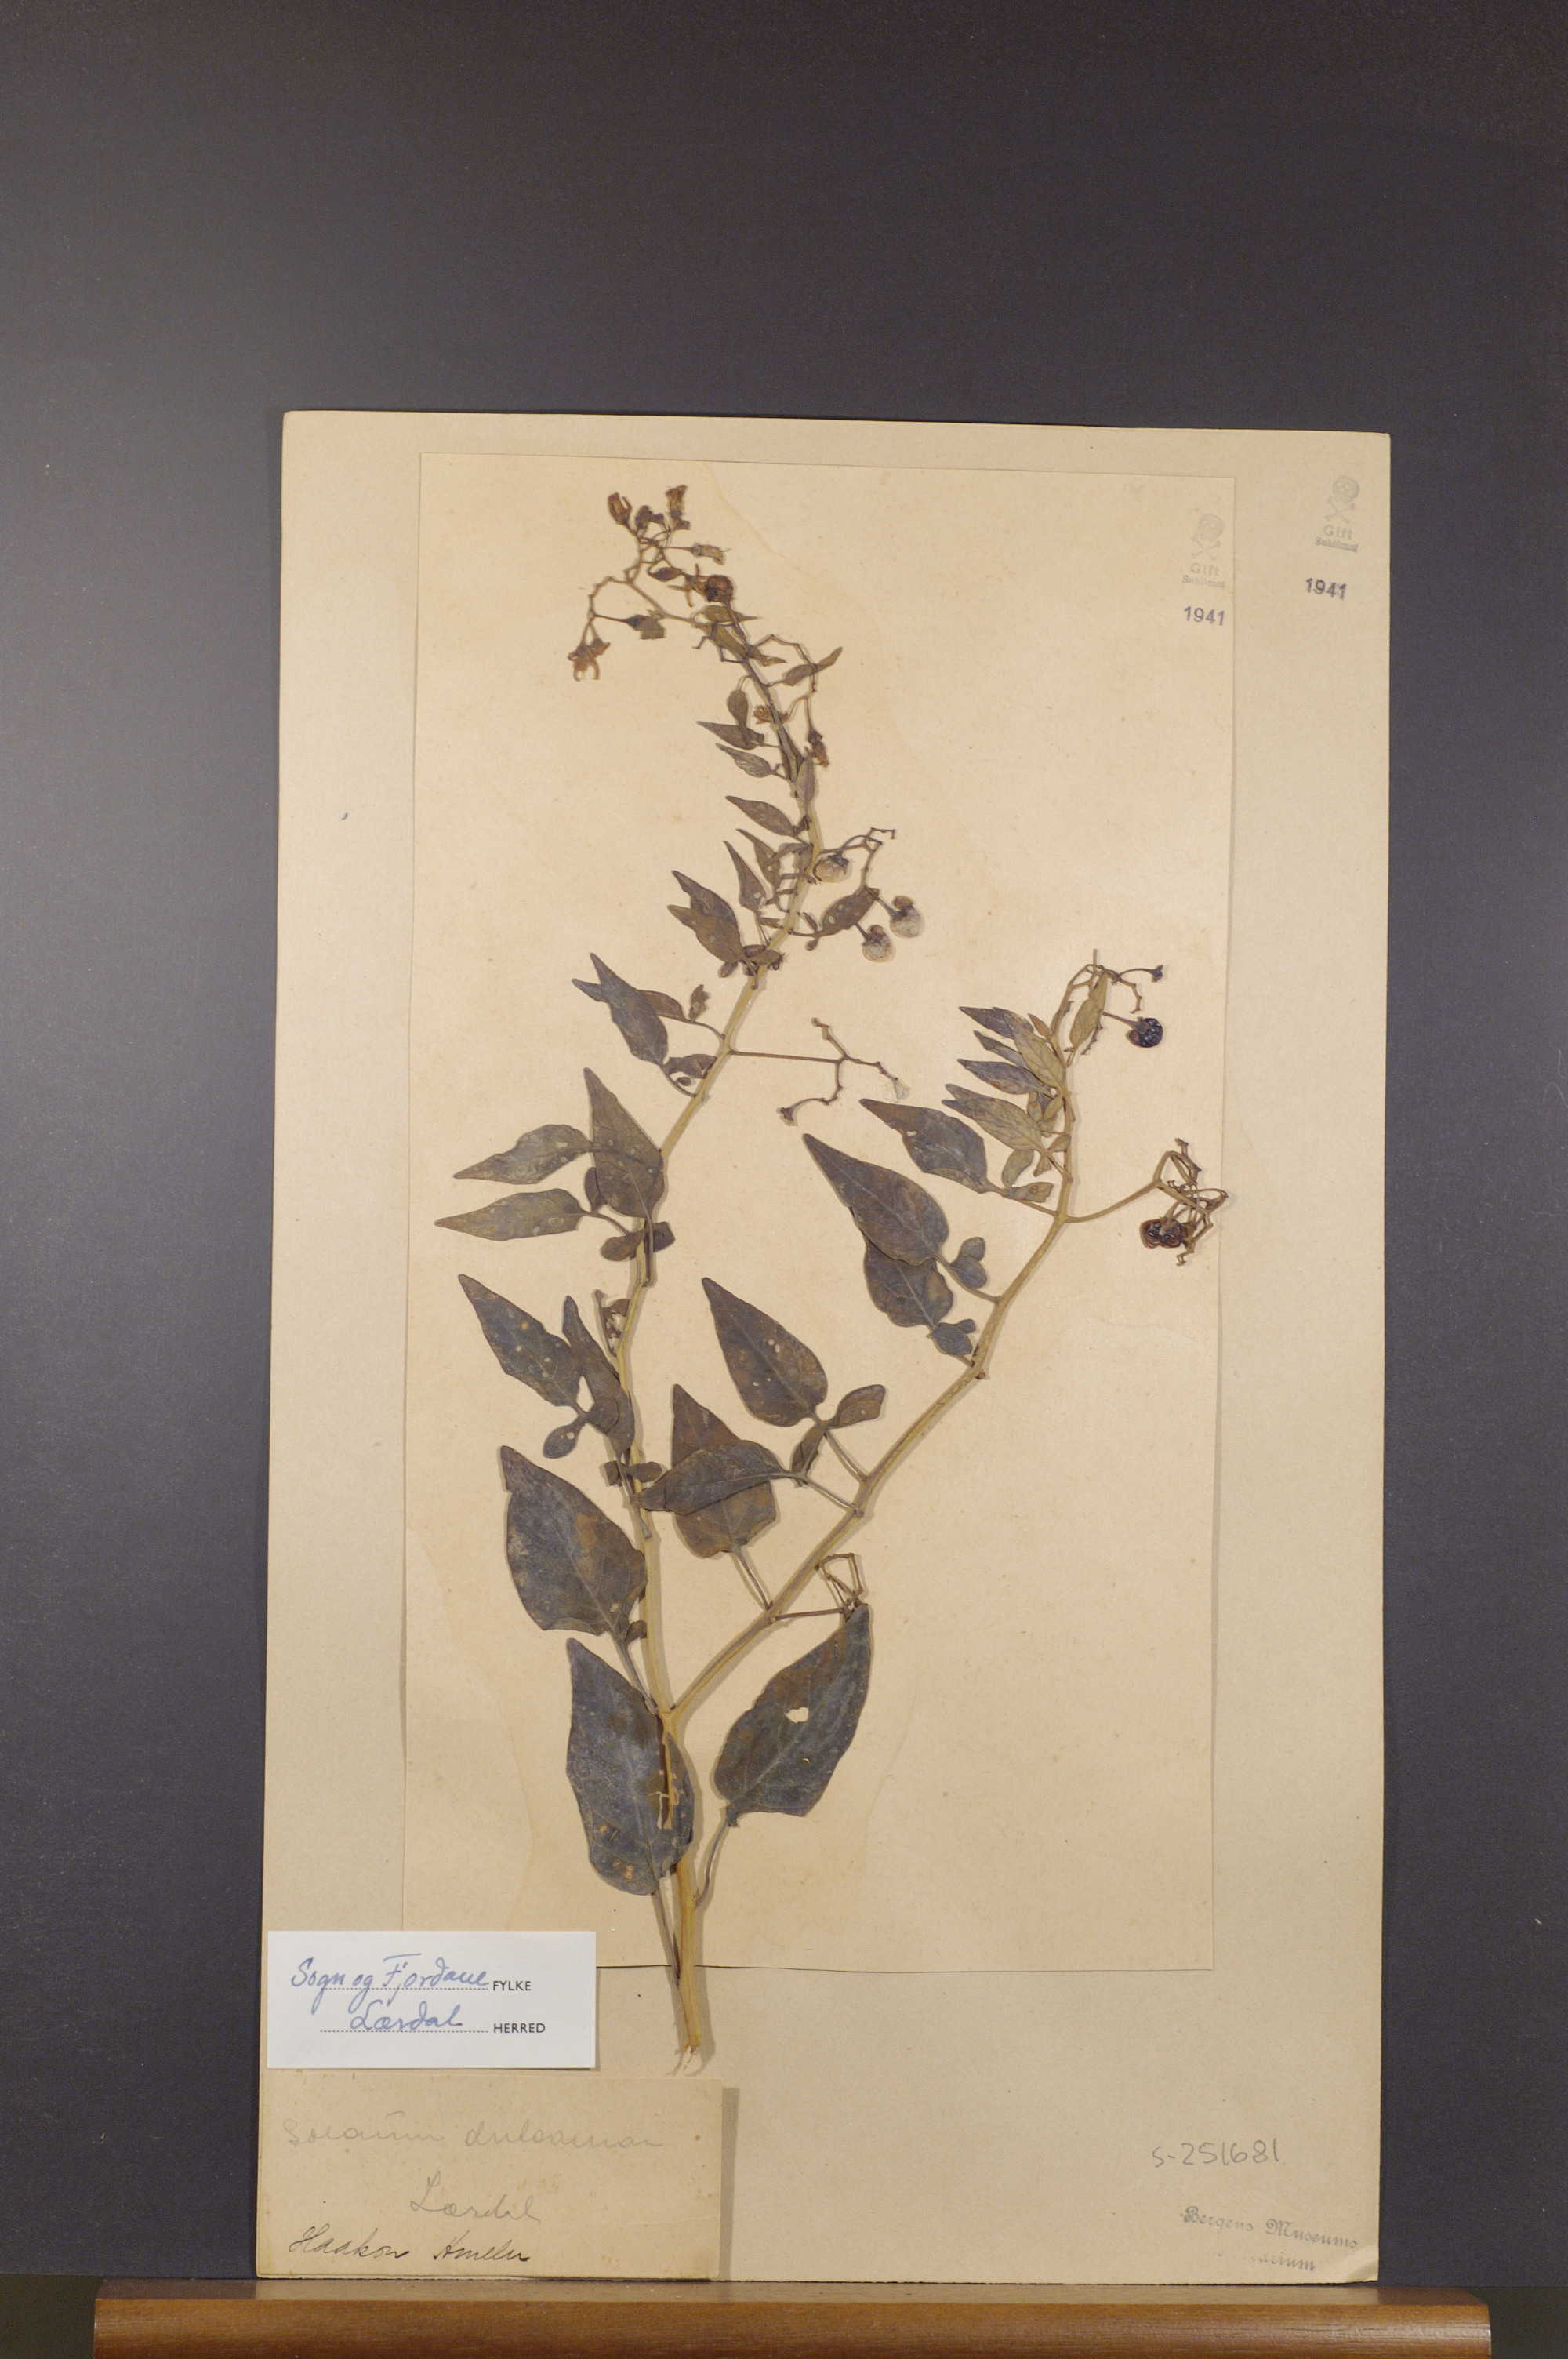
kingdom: Plantae
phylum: Tracheophyta
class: Magnoliopsida
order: Solanales
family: Solanaceae
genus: Solanum
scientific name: Solanum dulcamara
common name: Climbing nightshade
